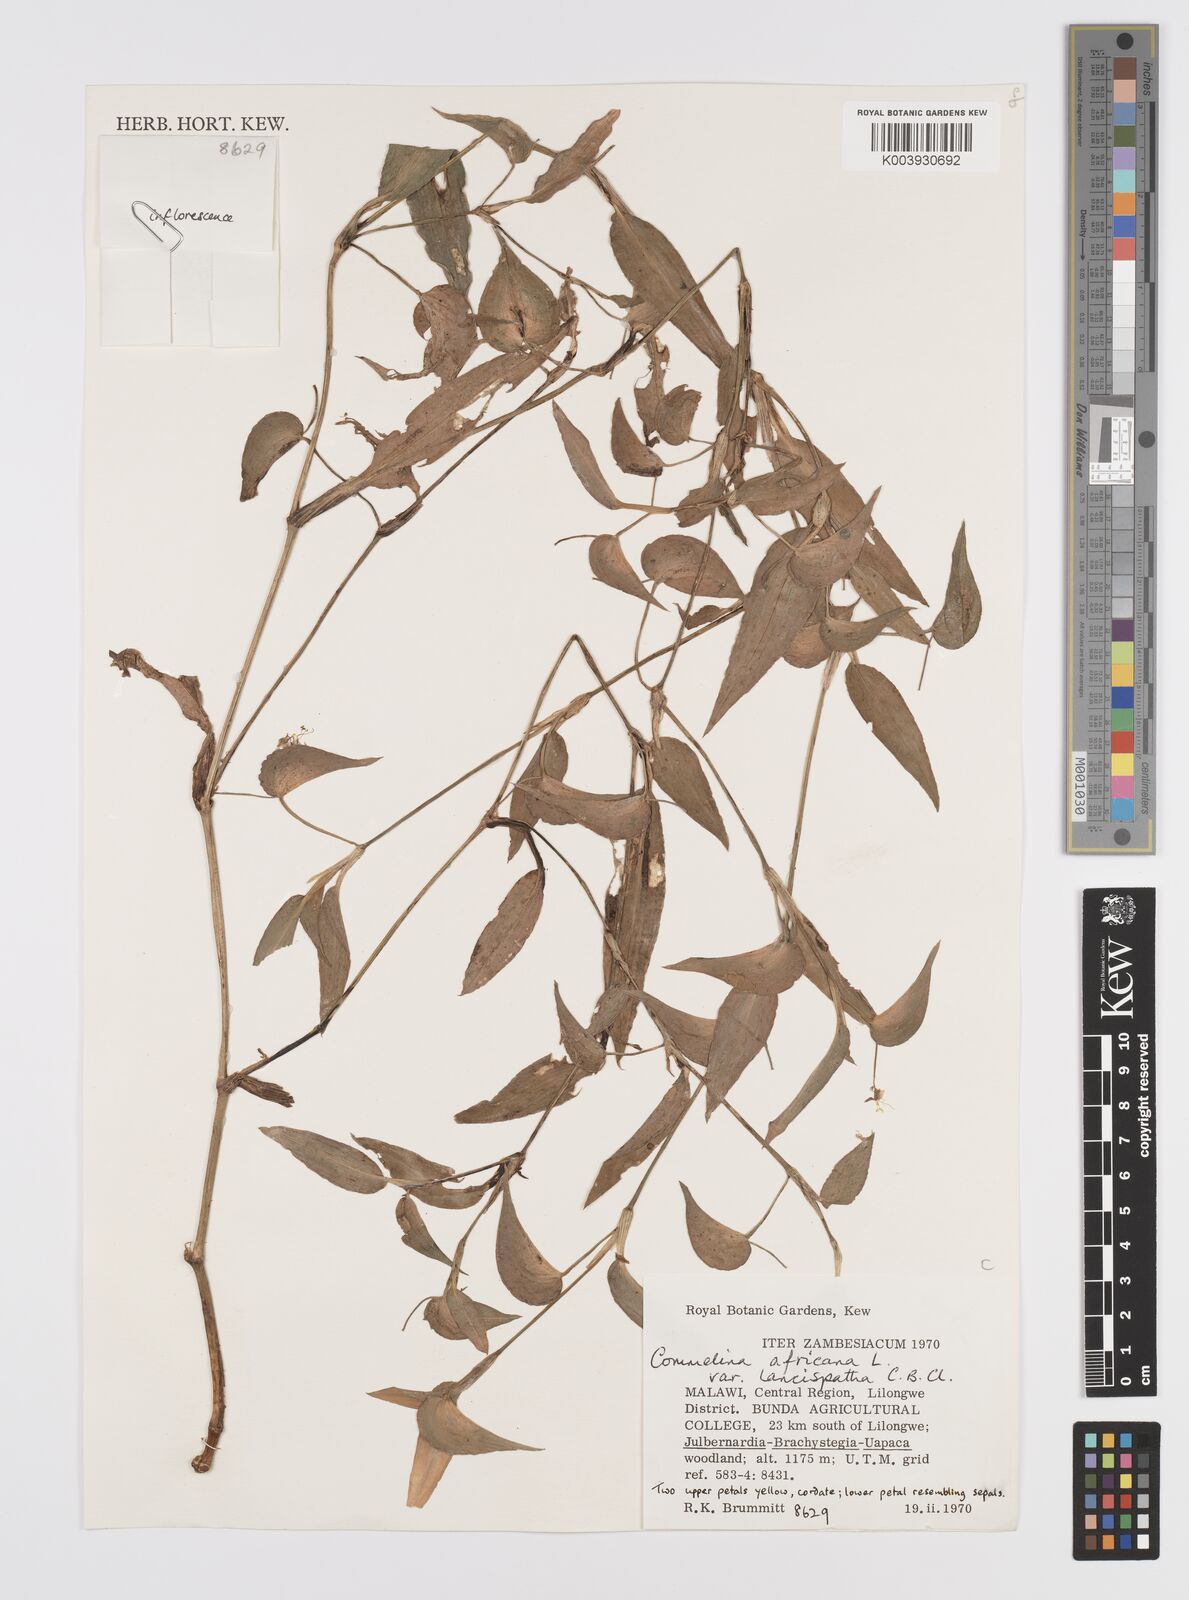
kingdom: Plantae
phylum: Tracheophyta
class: Liliopsida
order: Commelinales
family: Commelinaceae
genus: Commelina
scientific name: Commelina africana
